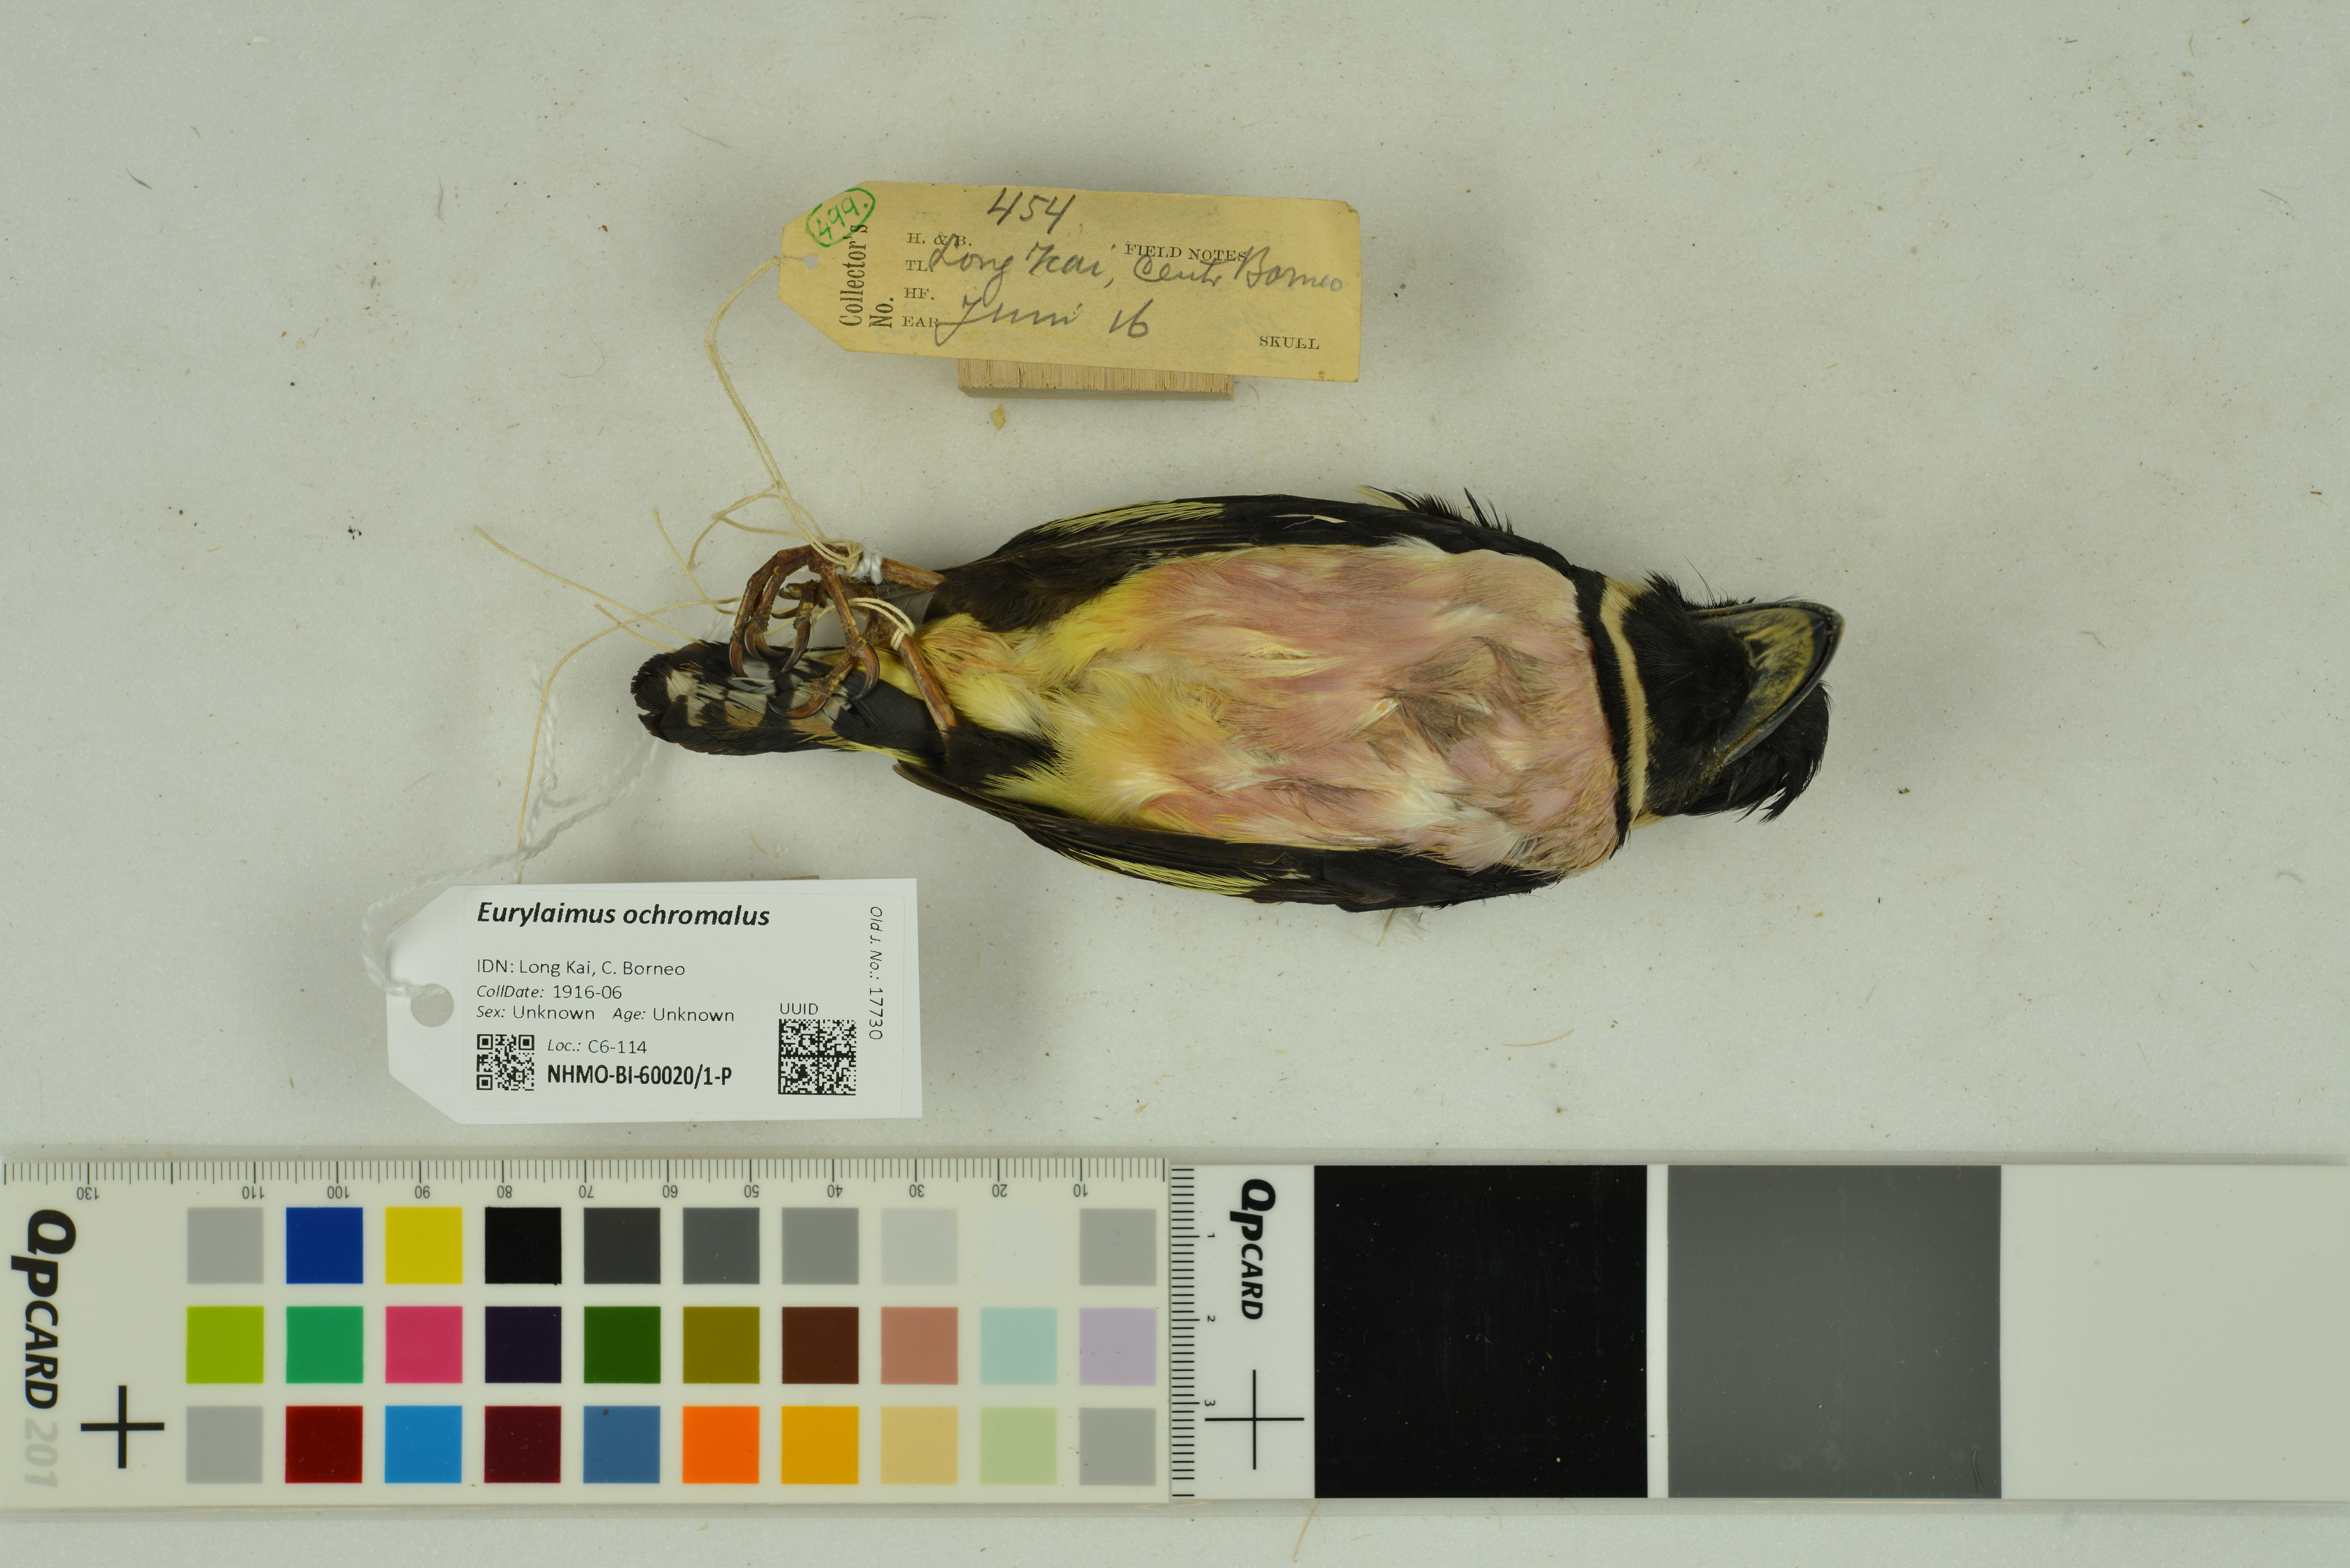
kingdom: Animalia
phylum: Chordata
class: Aves
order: Passeriformes
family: Eurylaimidae
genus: Eurylaimus
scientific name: Eurylaimus ochromalus
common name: Black-and-yellow broadbill
